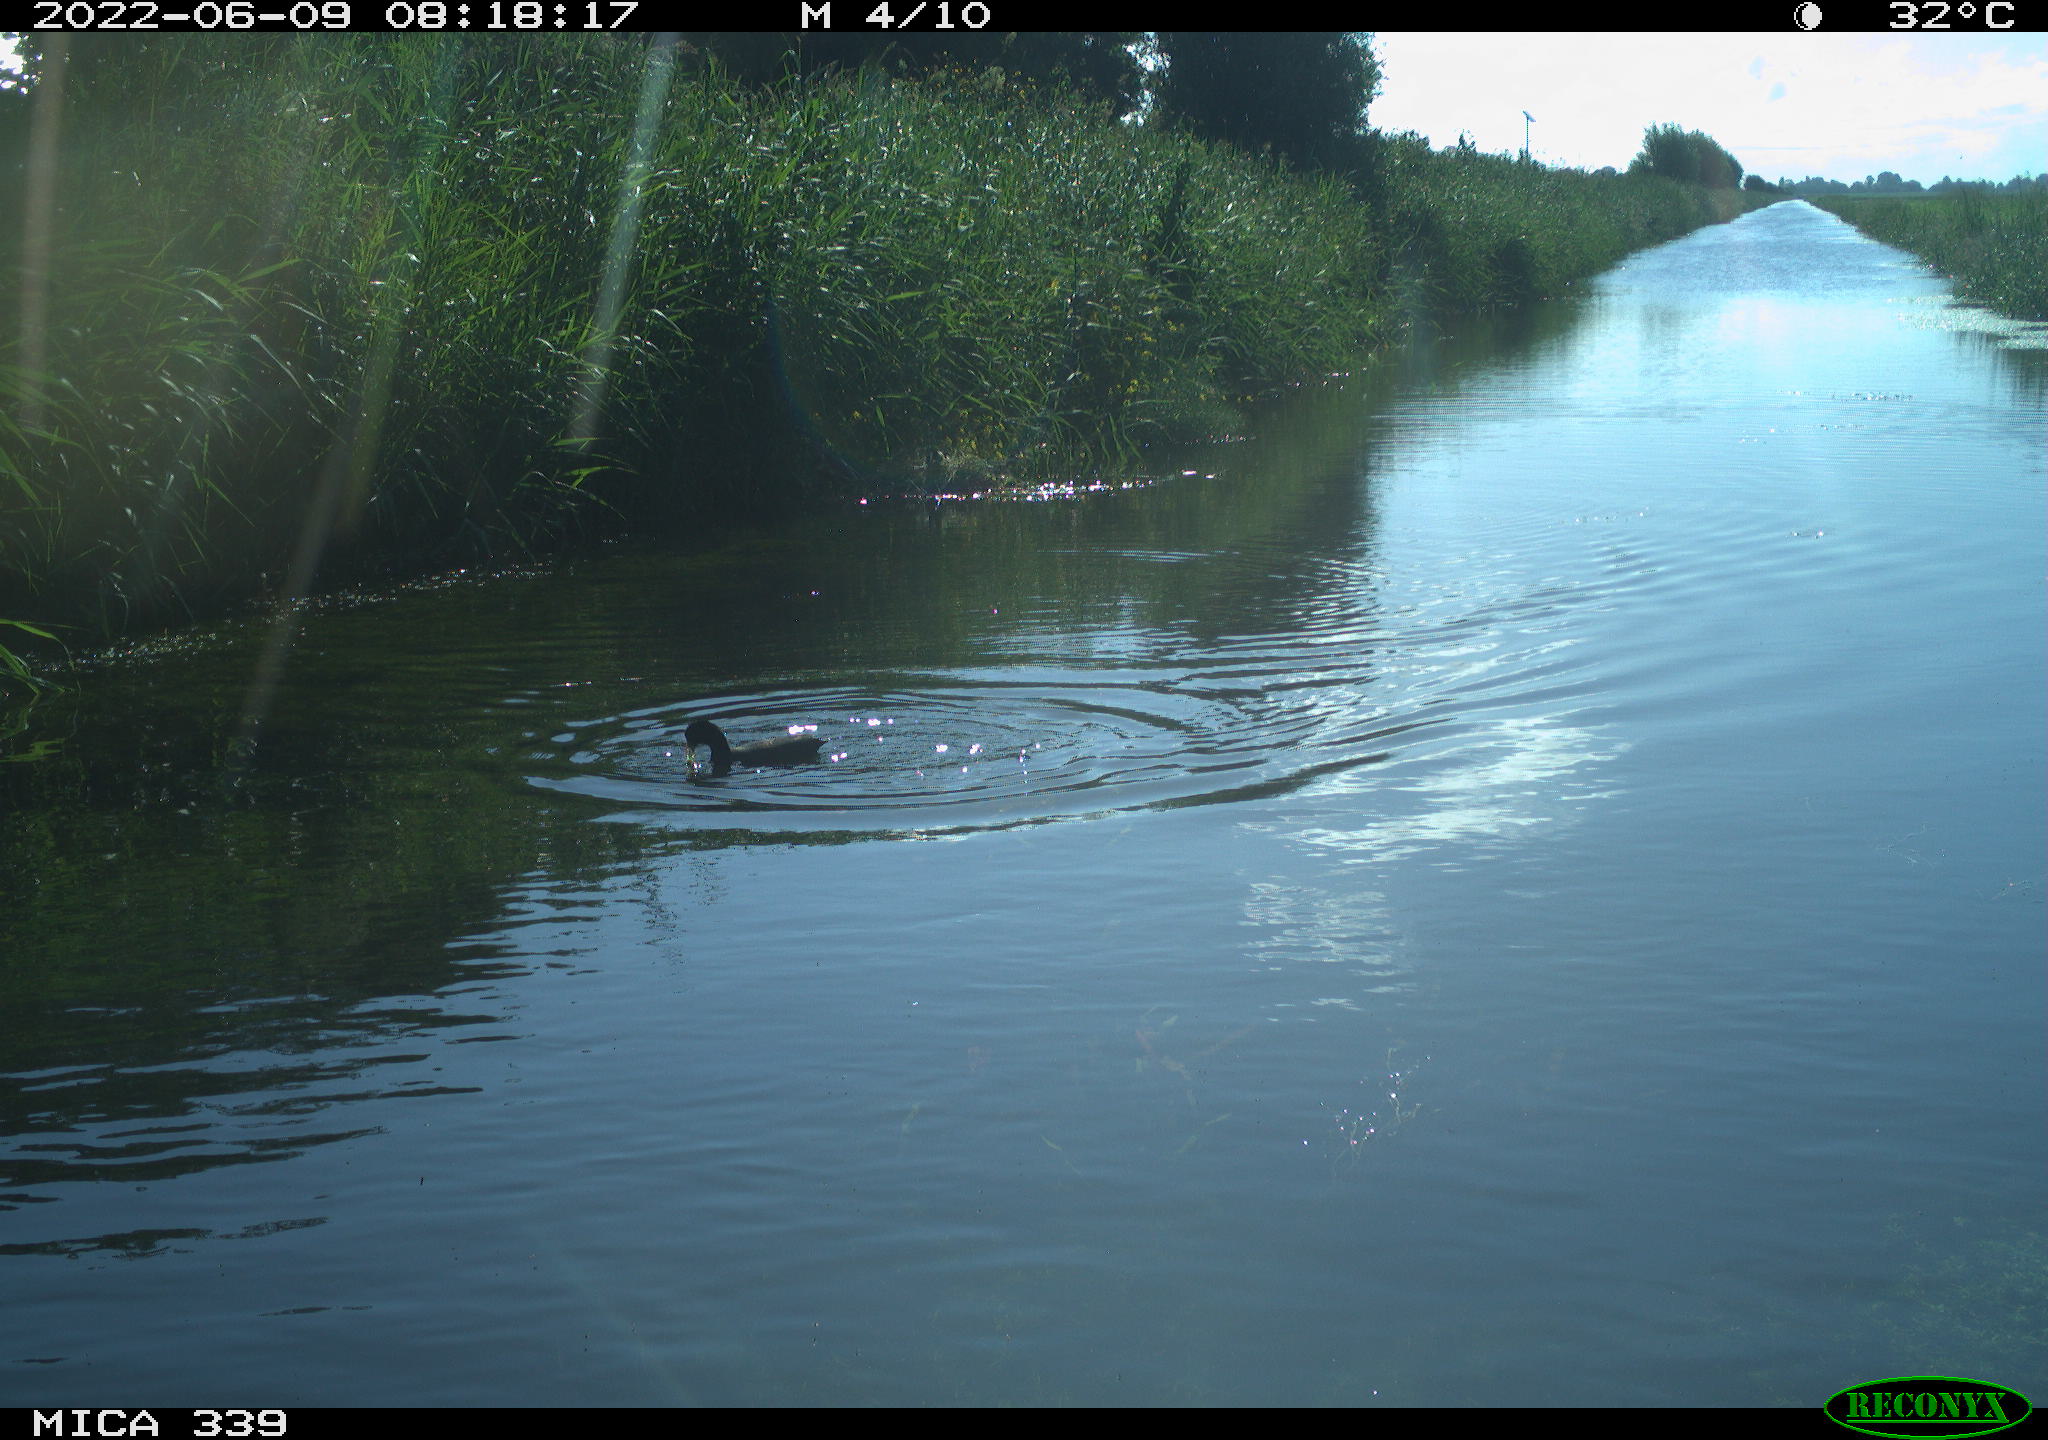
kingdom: Animalia
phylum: Chordata
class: Aves
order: Gruiformes
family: Rallidae
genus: Fulica
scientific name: Fulica atra
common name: Eurasian coot
